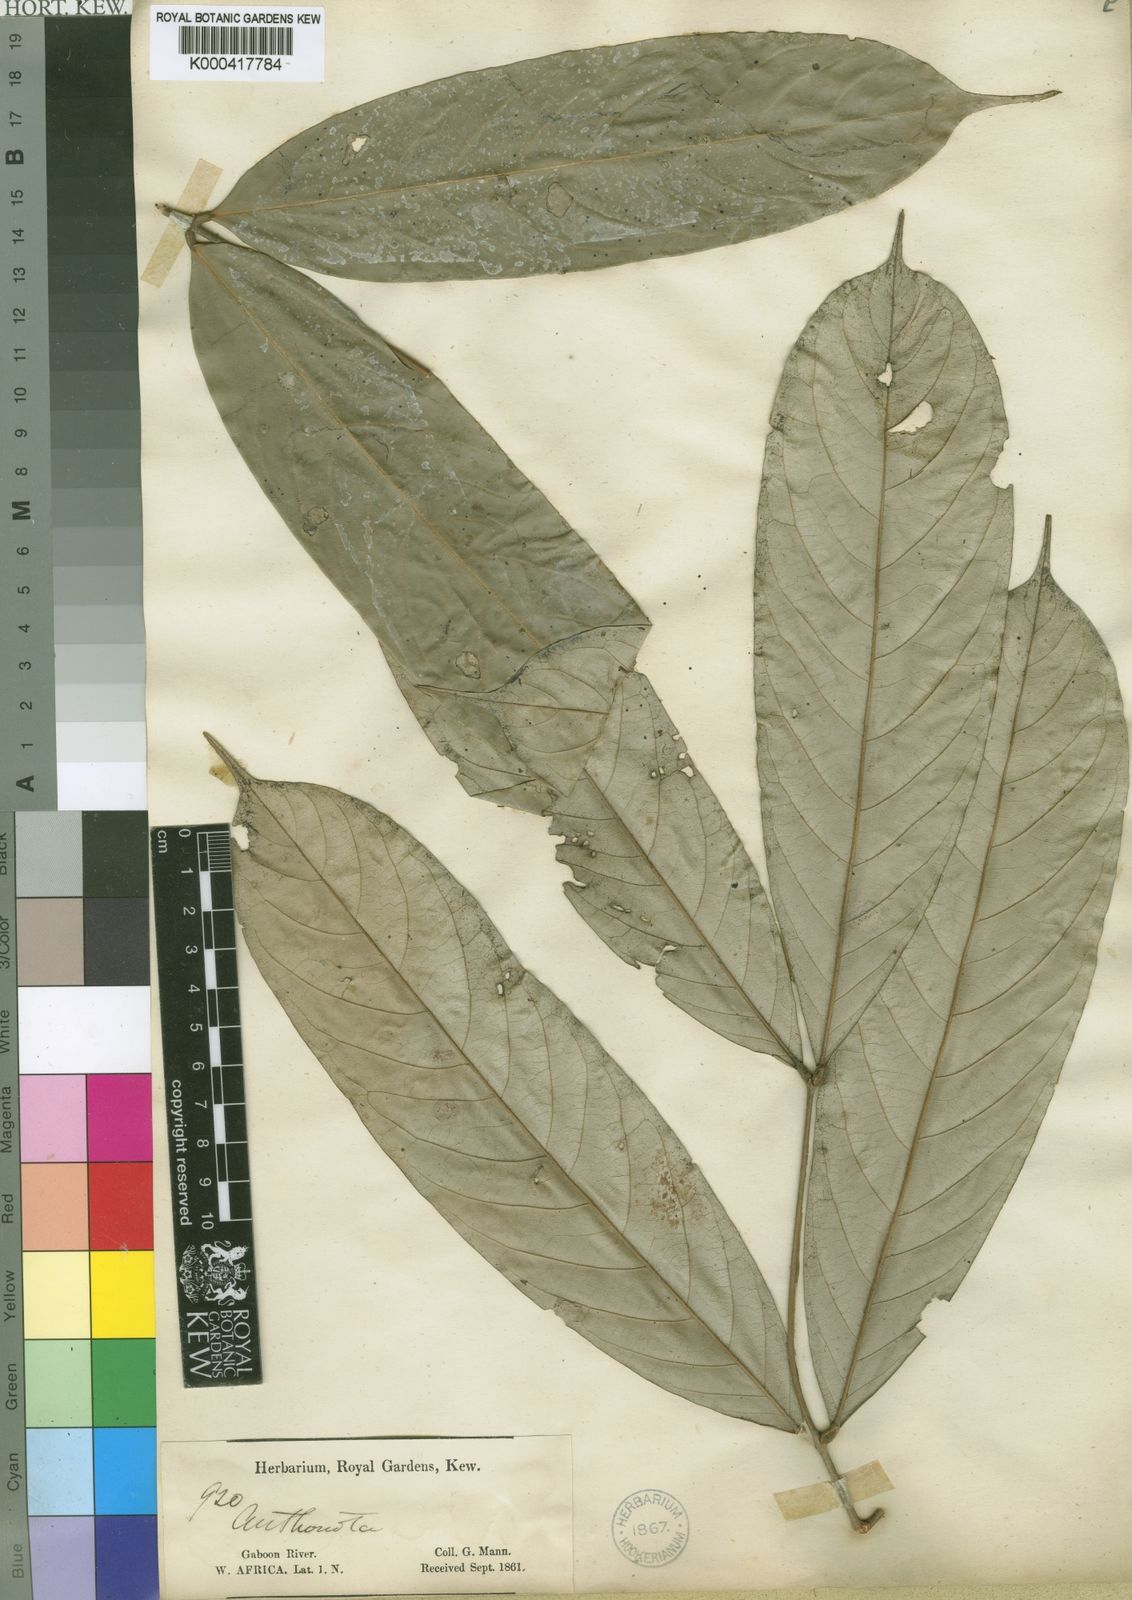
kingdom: Plantae
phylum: Tracheophyta
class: Magnoliopsida
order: Fabales
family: Fabaceae
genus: Anthonotha
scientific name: Anthonotha
